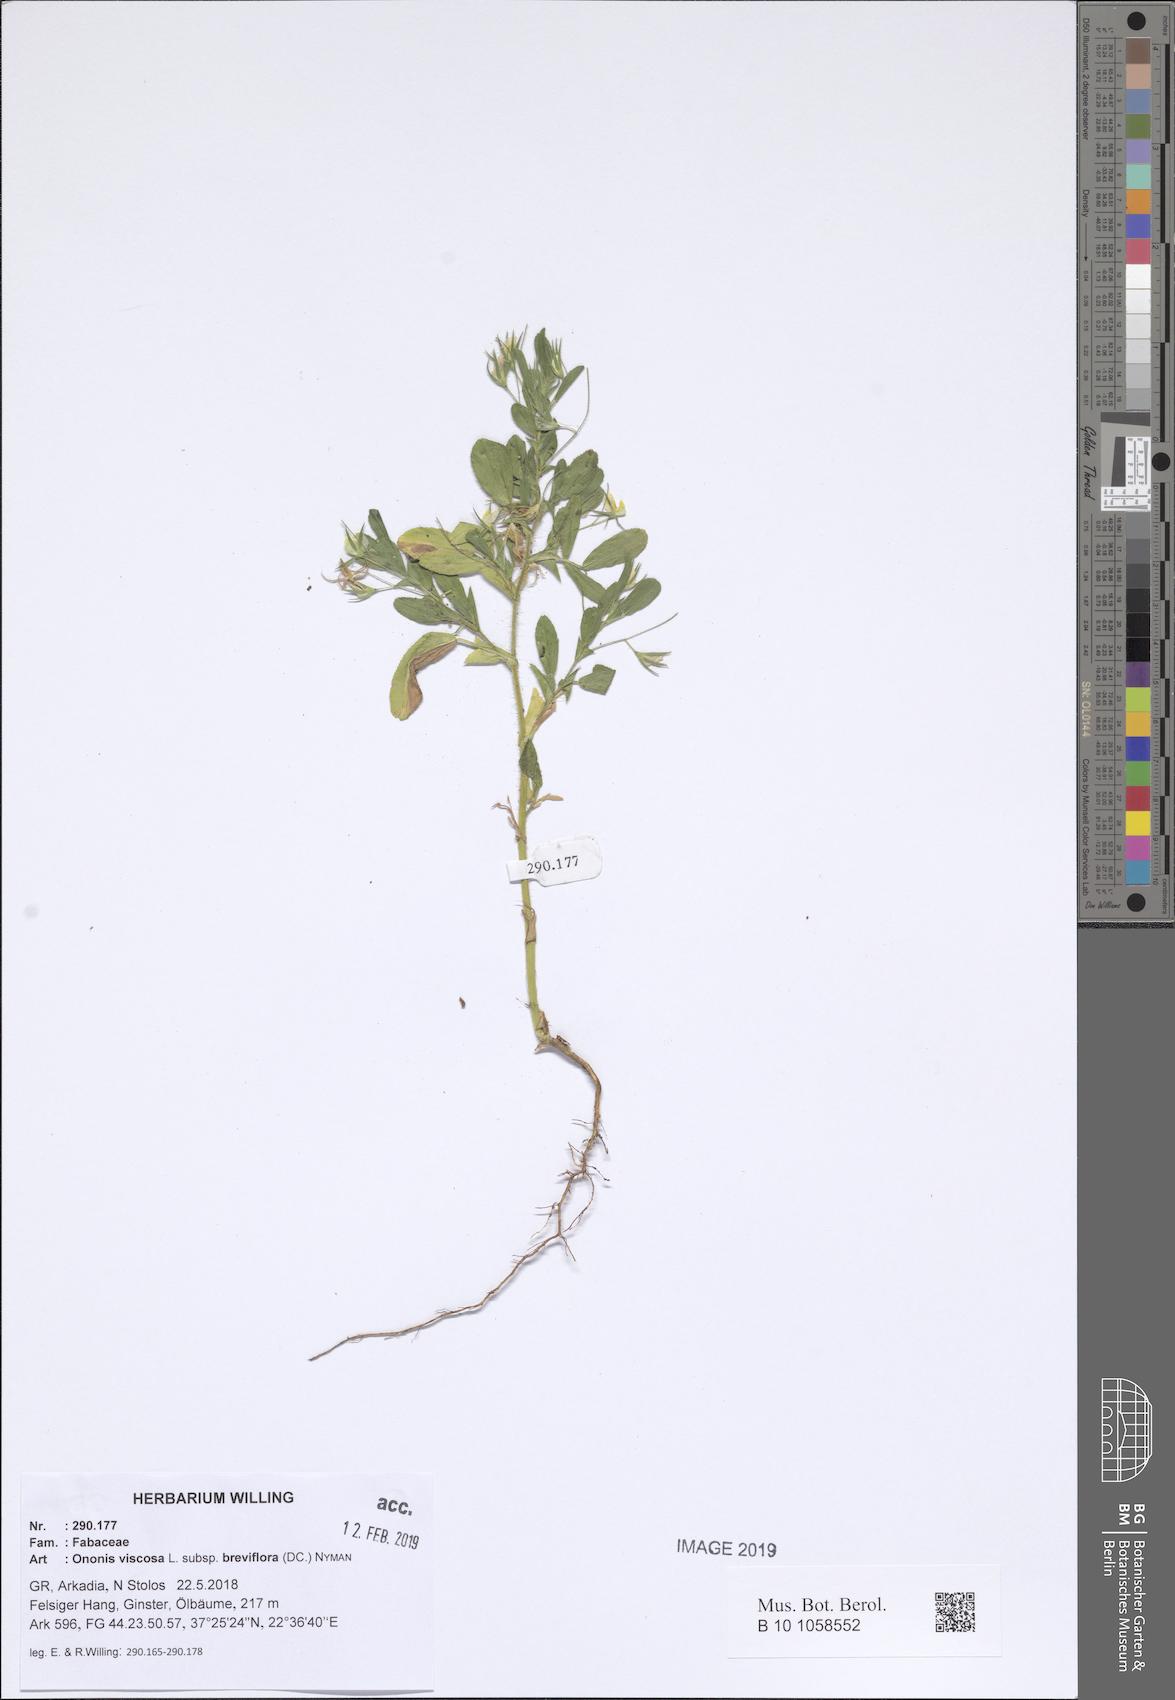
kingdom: Plantae
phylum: Tracheophyta
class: Magnoliopsida
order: Fabales
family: Fabaceae
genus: Ononis
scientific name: Ononis viscosa
